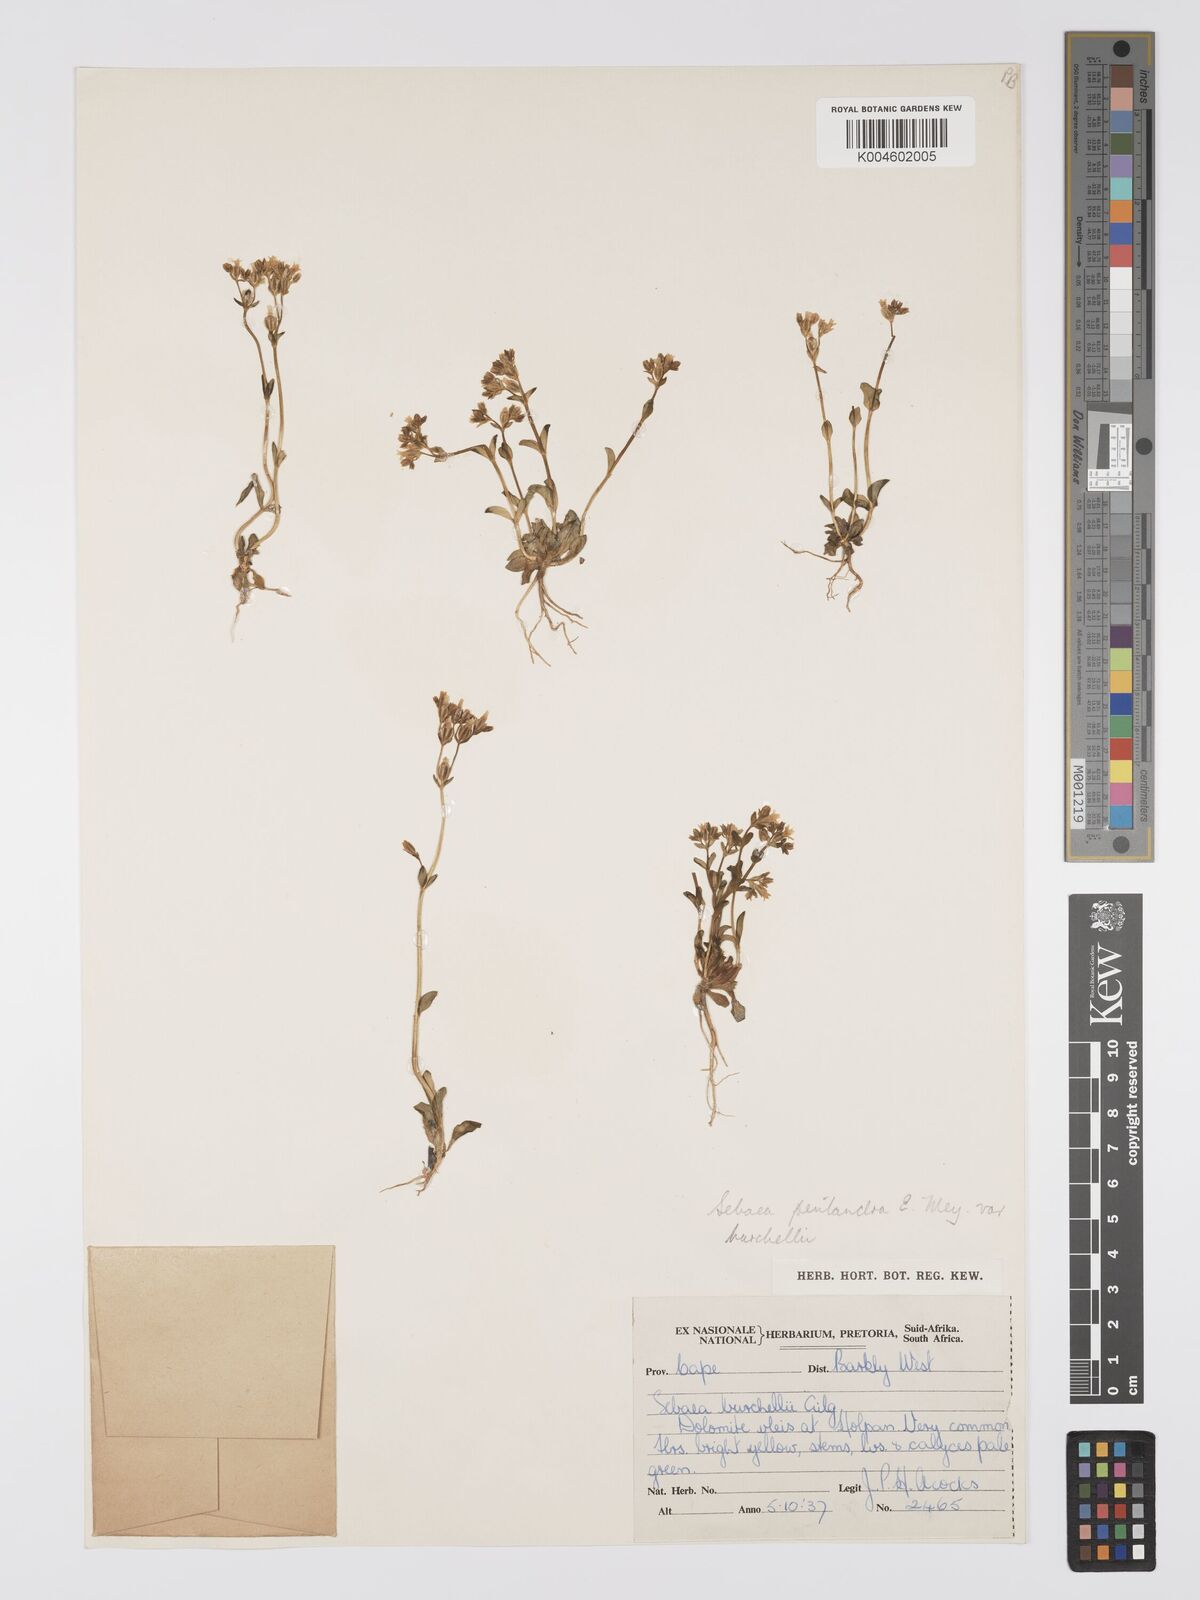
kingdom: Plantae
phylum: Tracheophyta
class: Magnoliopsida
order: Gentianales
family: Gentianaceae
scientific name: Gentianaceae
